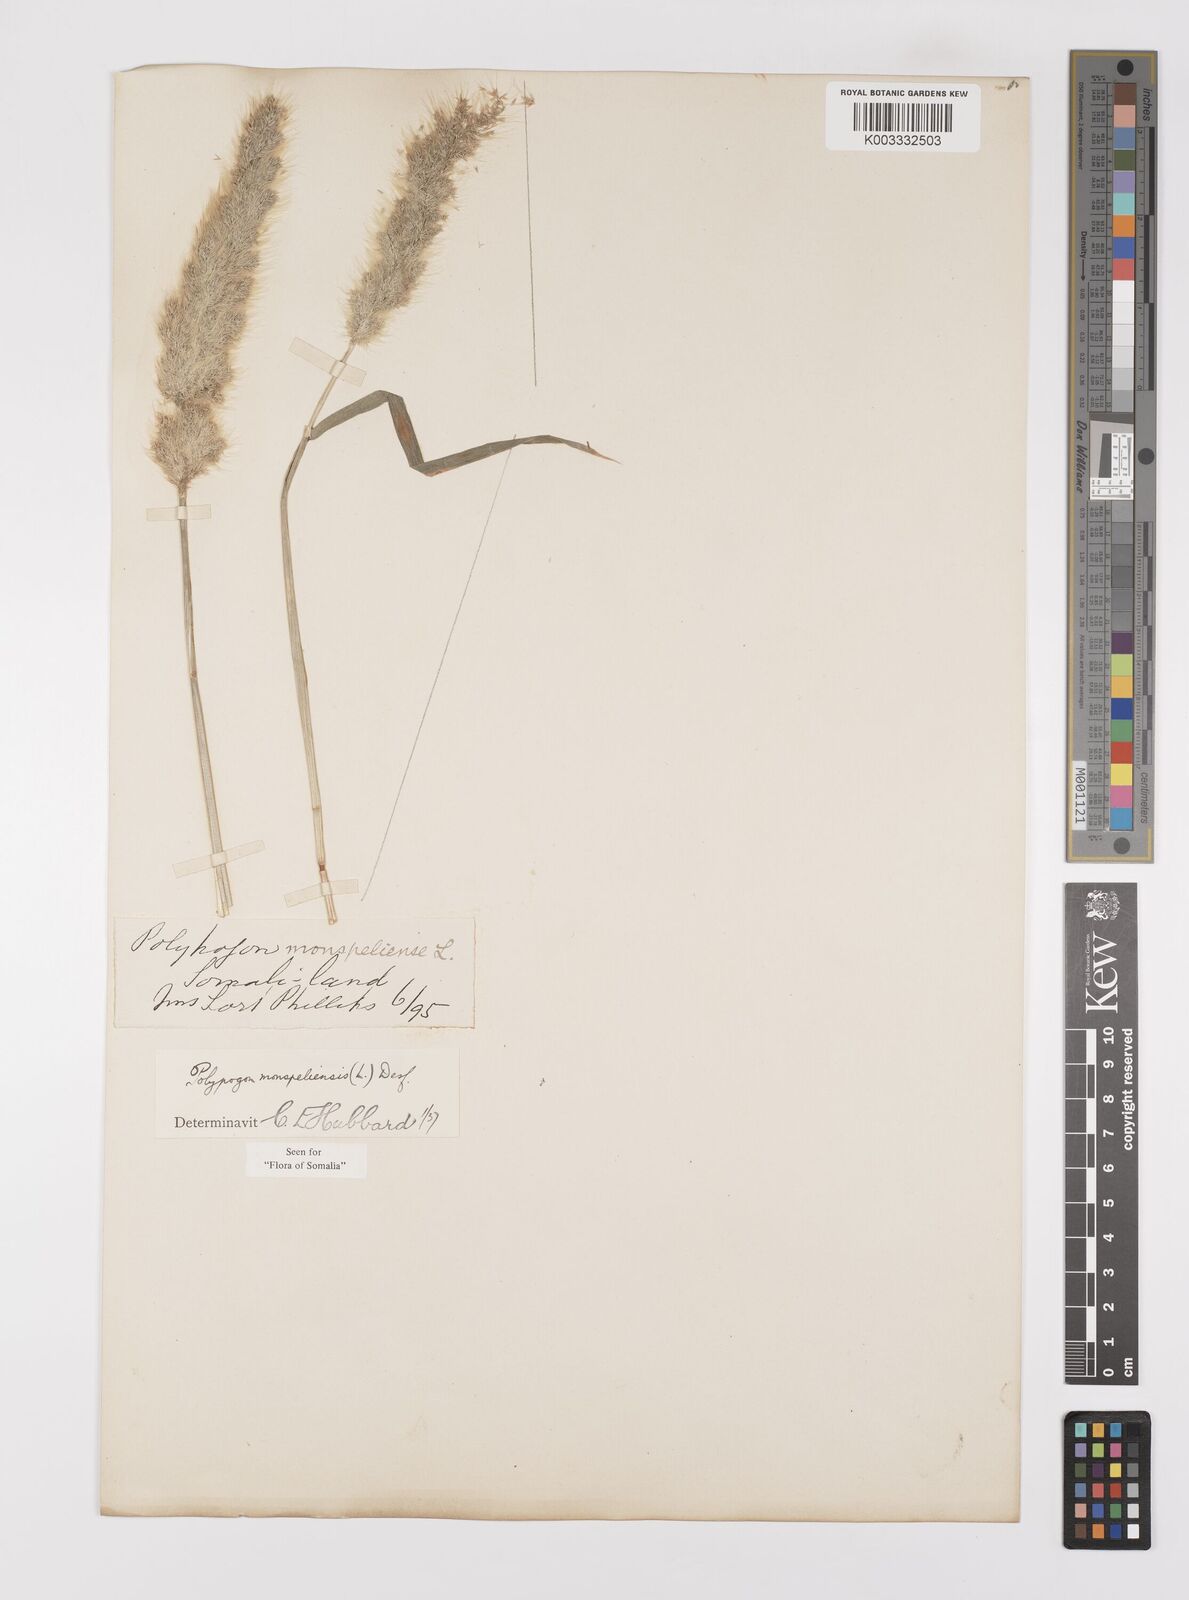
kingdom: Plantae
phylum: Tracheophyta
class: Liliopsida
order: Poales
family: Poaceae
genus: Polypogon
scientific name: Polypogon monspeliensis
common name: Annual rabbitsfoot grass
